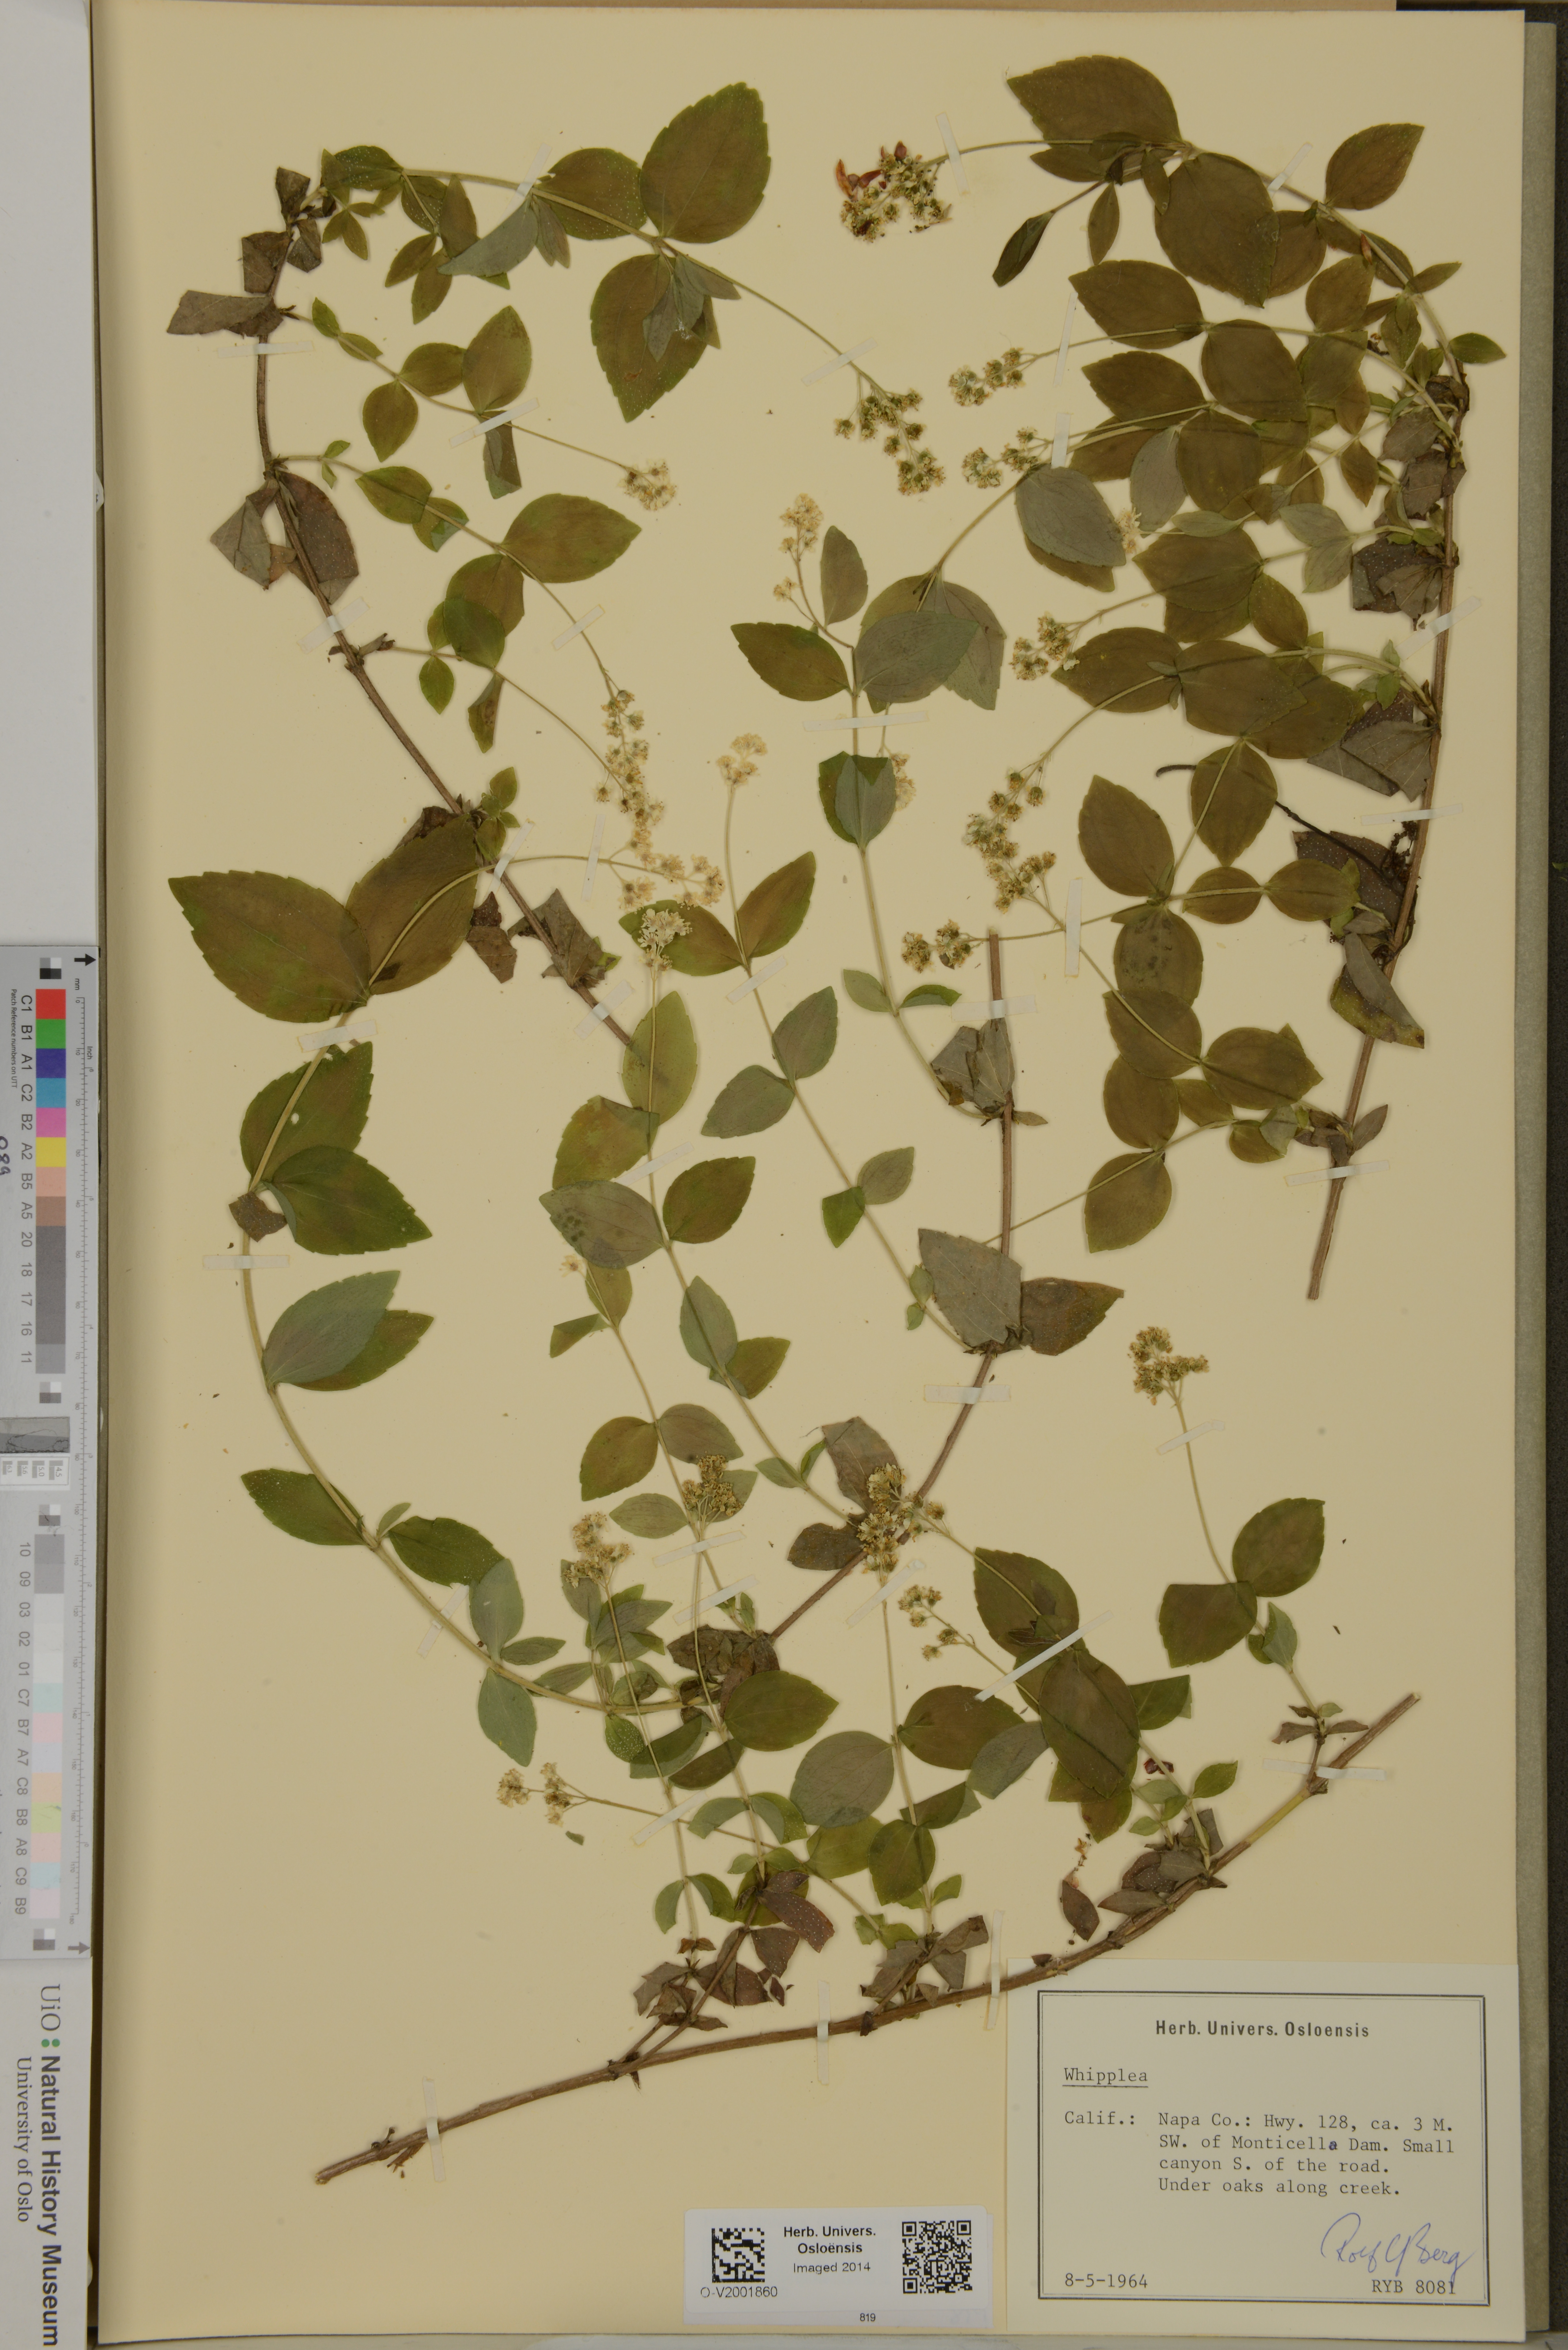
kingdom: Plantae
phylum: Tracheophyta
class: Magnoliopsida
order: Cornales
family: Hydrangeaceae
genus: Whipplea
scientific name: Whipplea
